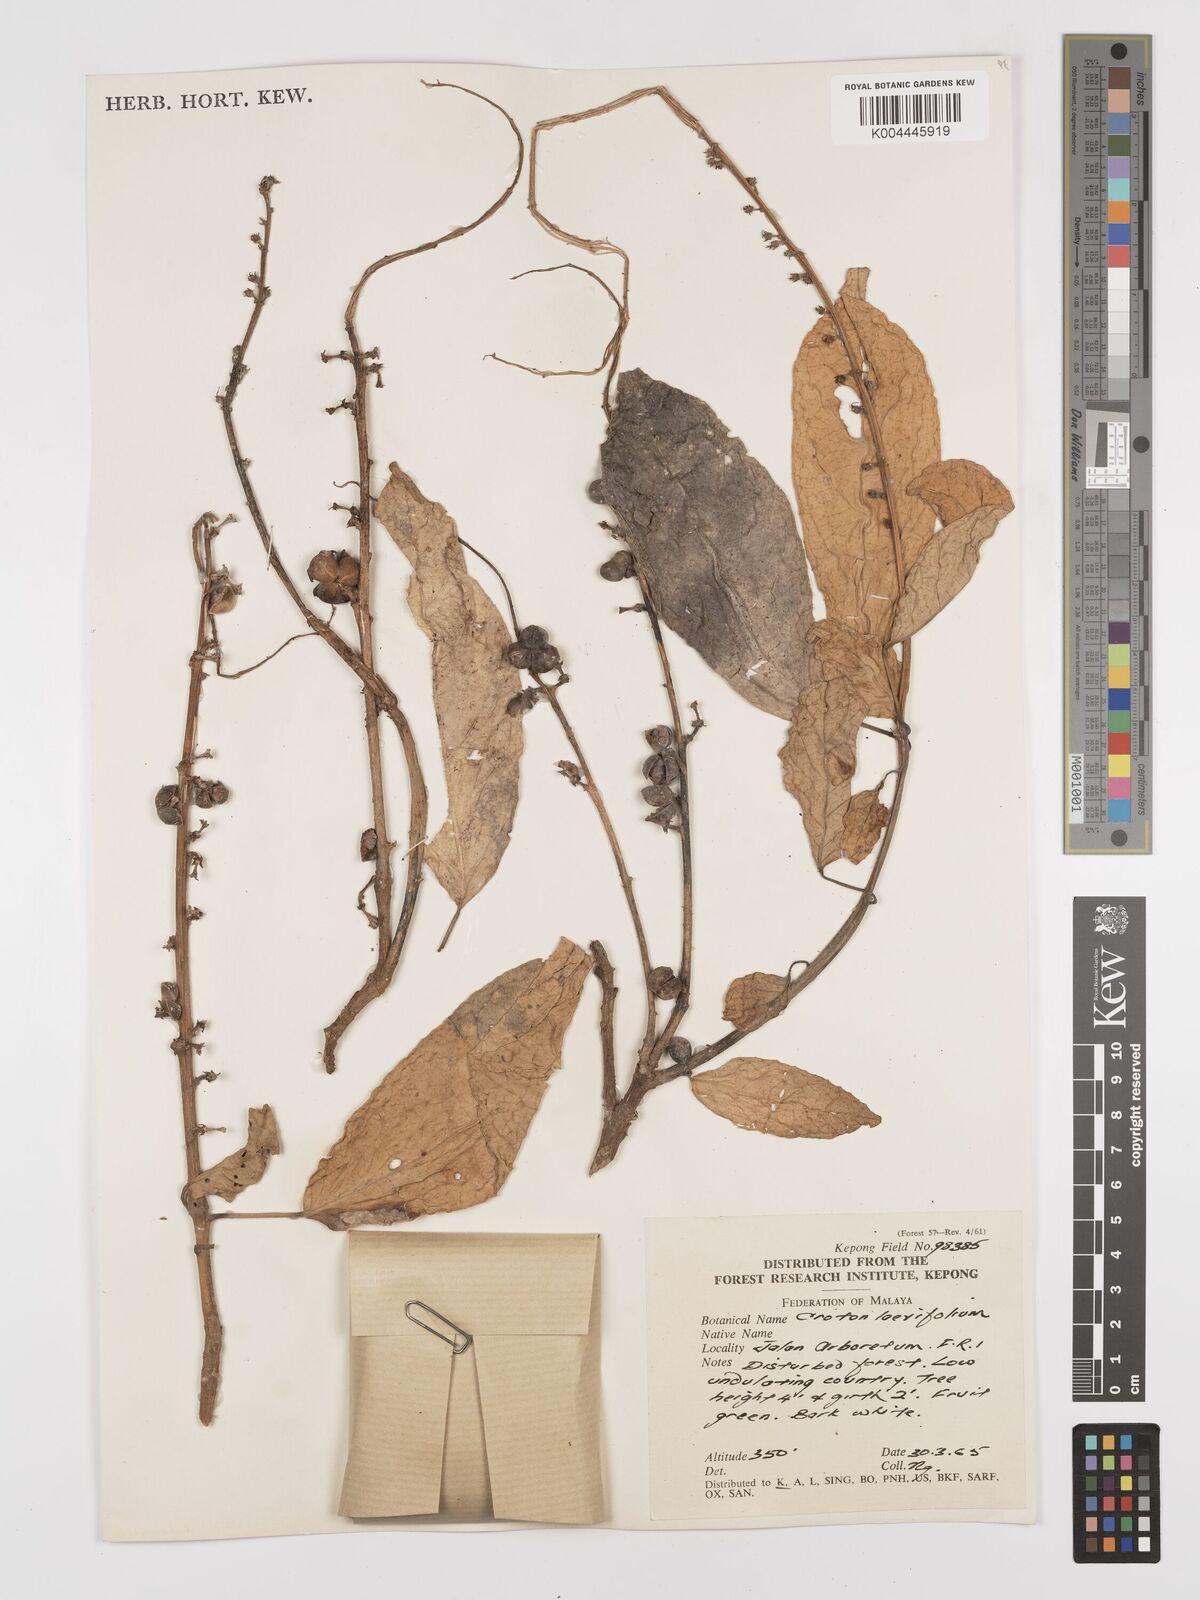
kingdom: Plantae
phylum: Tracheophyta
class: Magnoliopsida
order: Malpighiales
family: Euphorbiaceae
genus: Croton
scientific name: Croton griffithii
